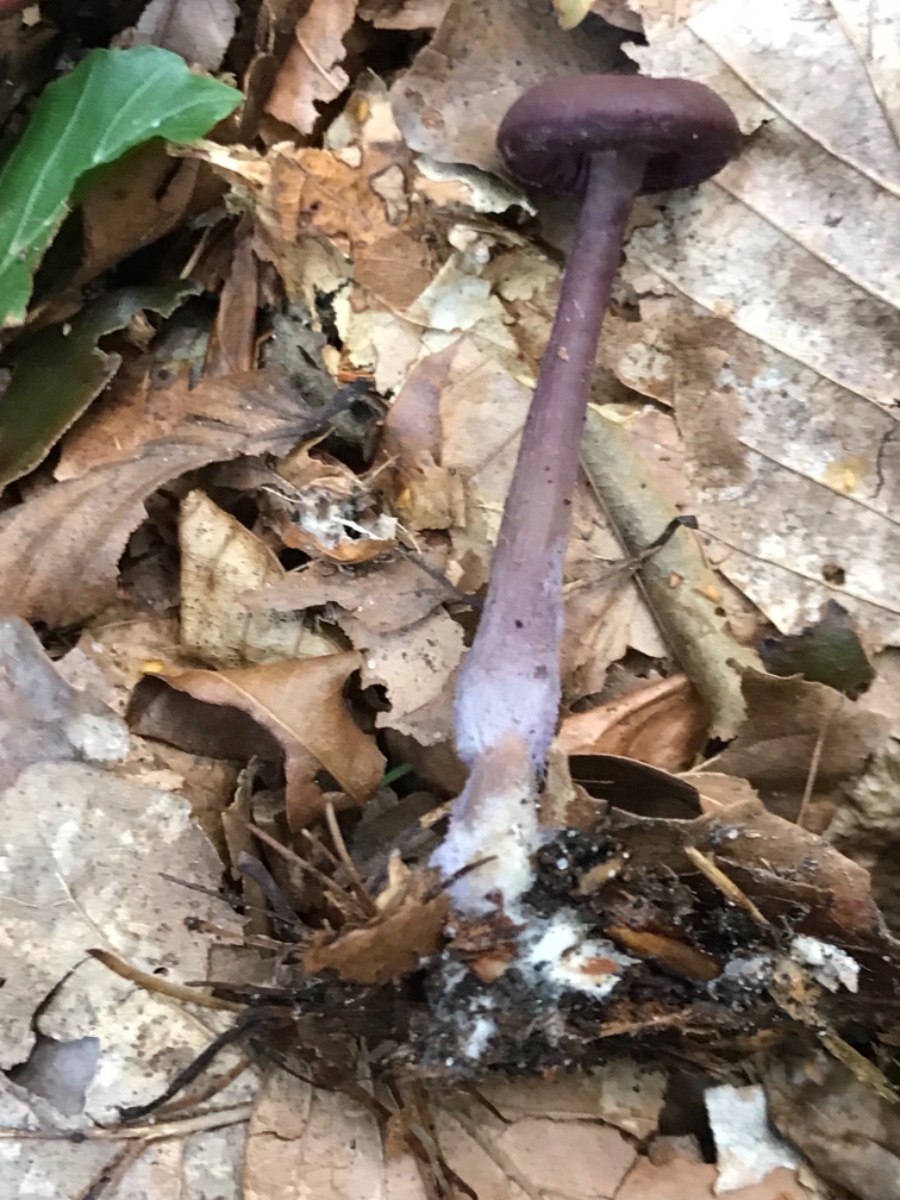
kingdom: Fungi
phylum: Basidiomycota
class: Agaricomycetes
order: Agaricales
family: Hydnangiaceae
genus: Laccaria
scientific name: Laccaria amethystina
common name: violet ametysthat
